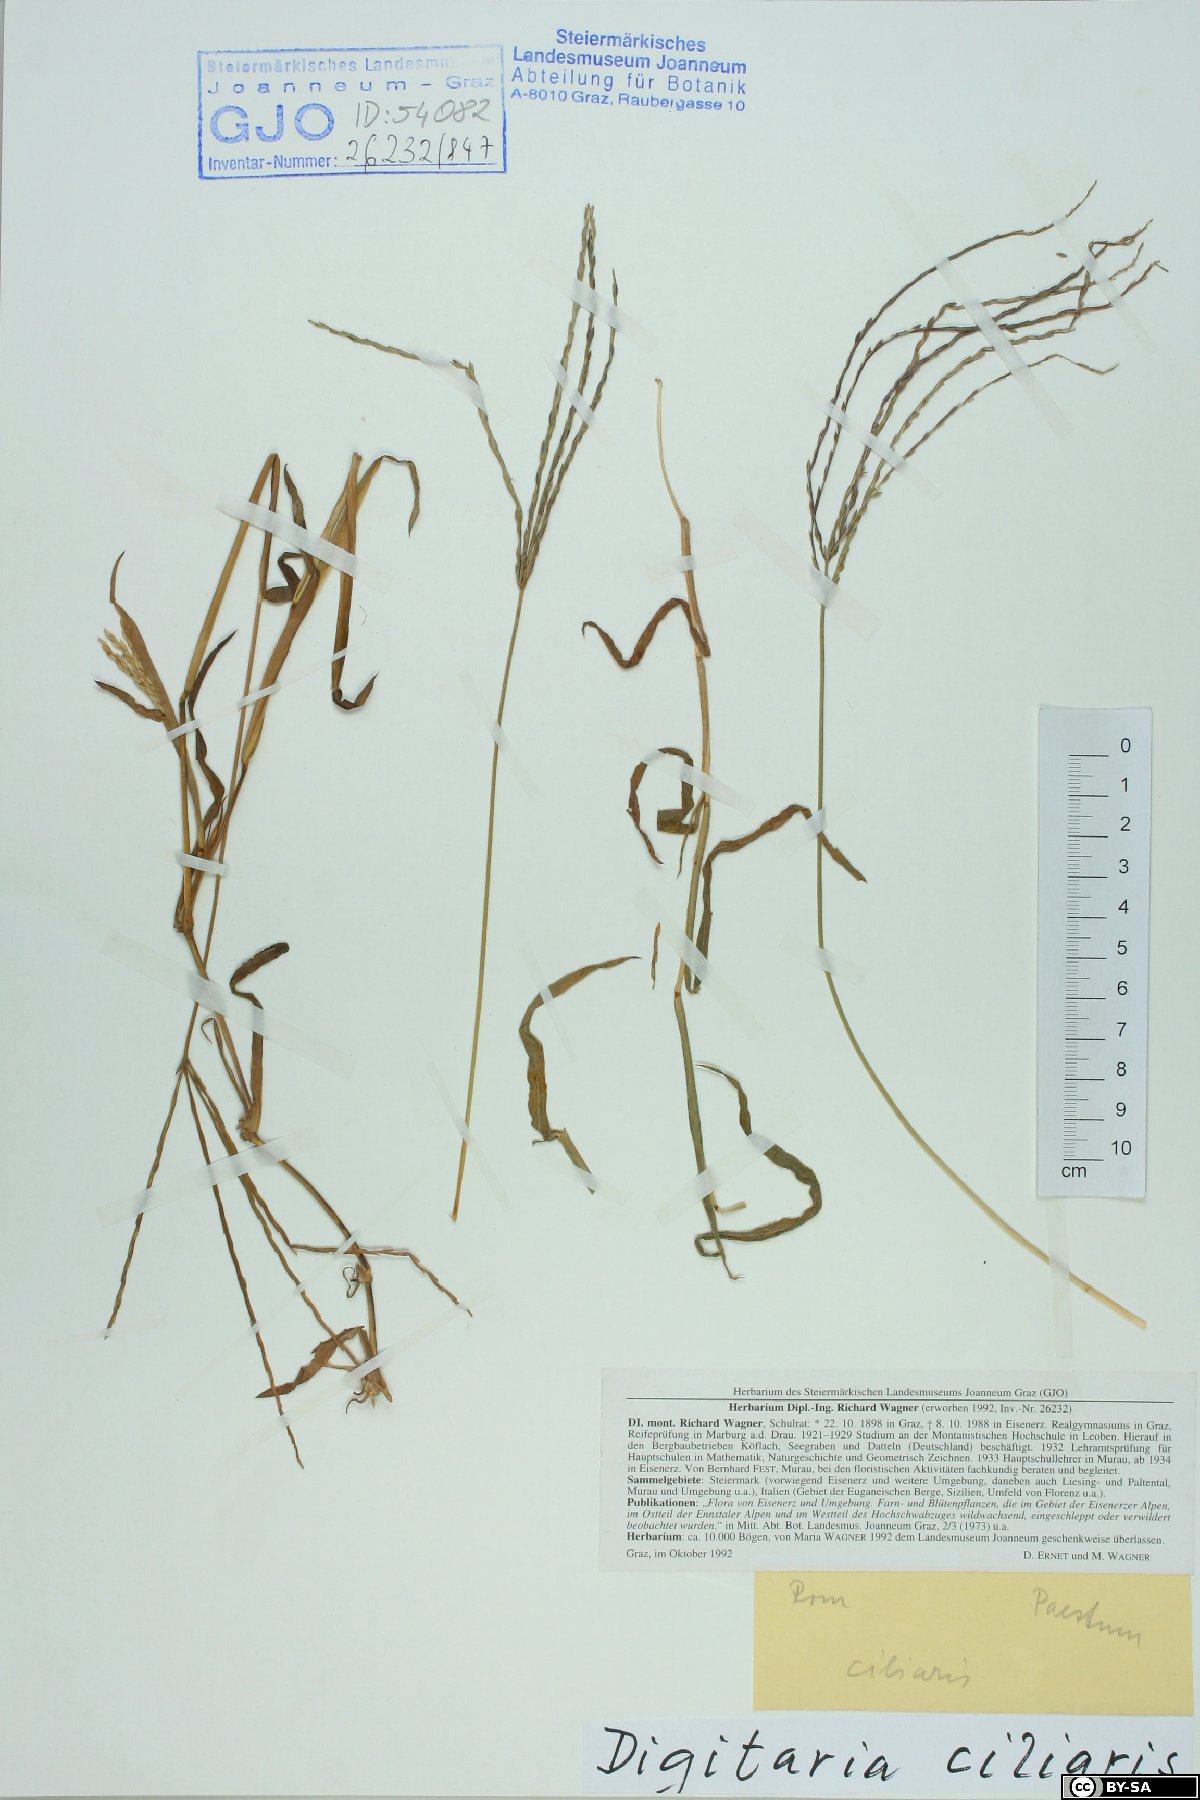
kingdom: Plantae
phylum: Tracheophyta
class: Liliopsida
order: Poales
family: Poaceae
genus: Digitaria
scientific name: Digitaria ciliaris
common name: Tropical finger-grass
